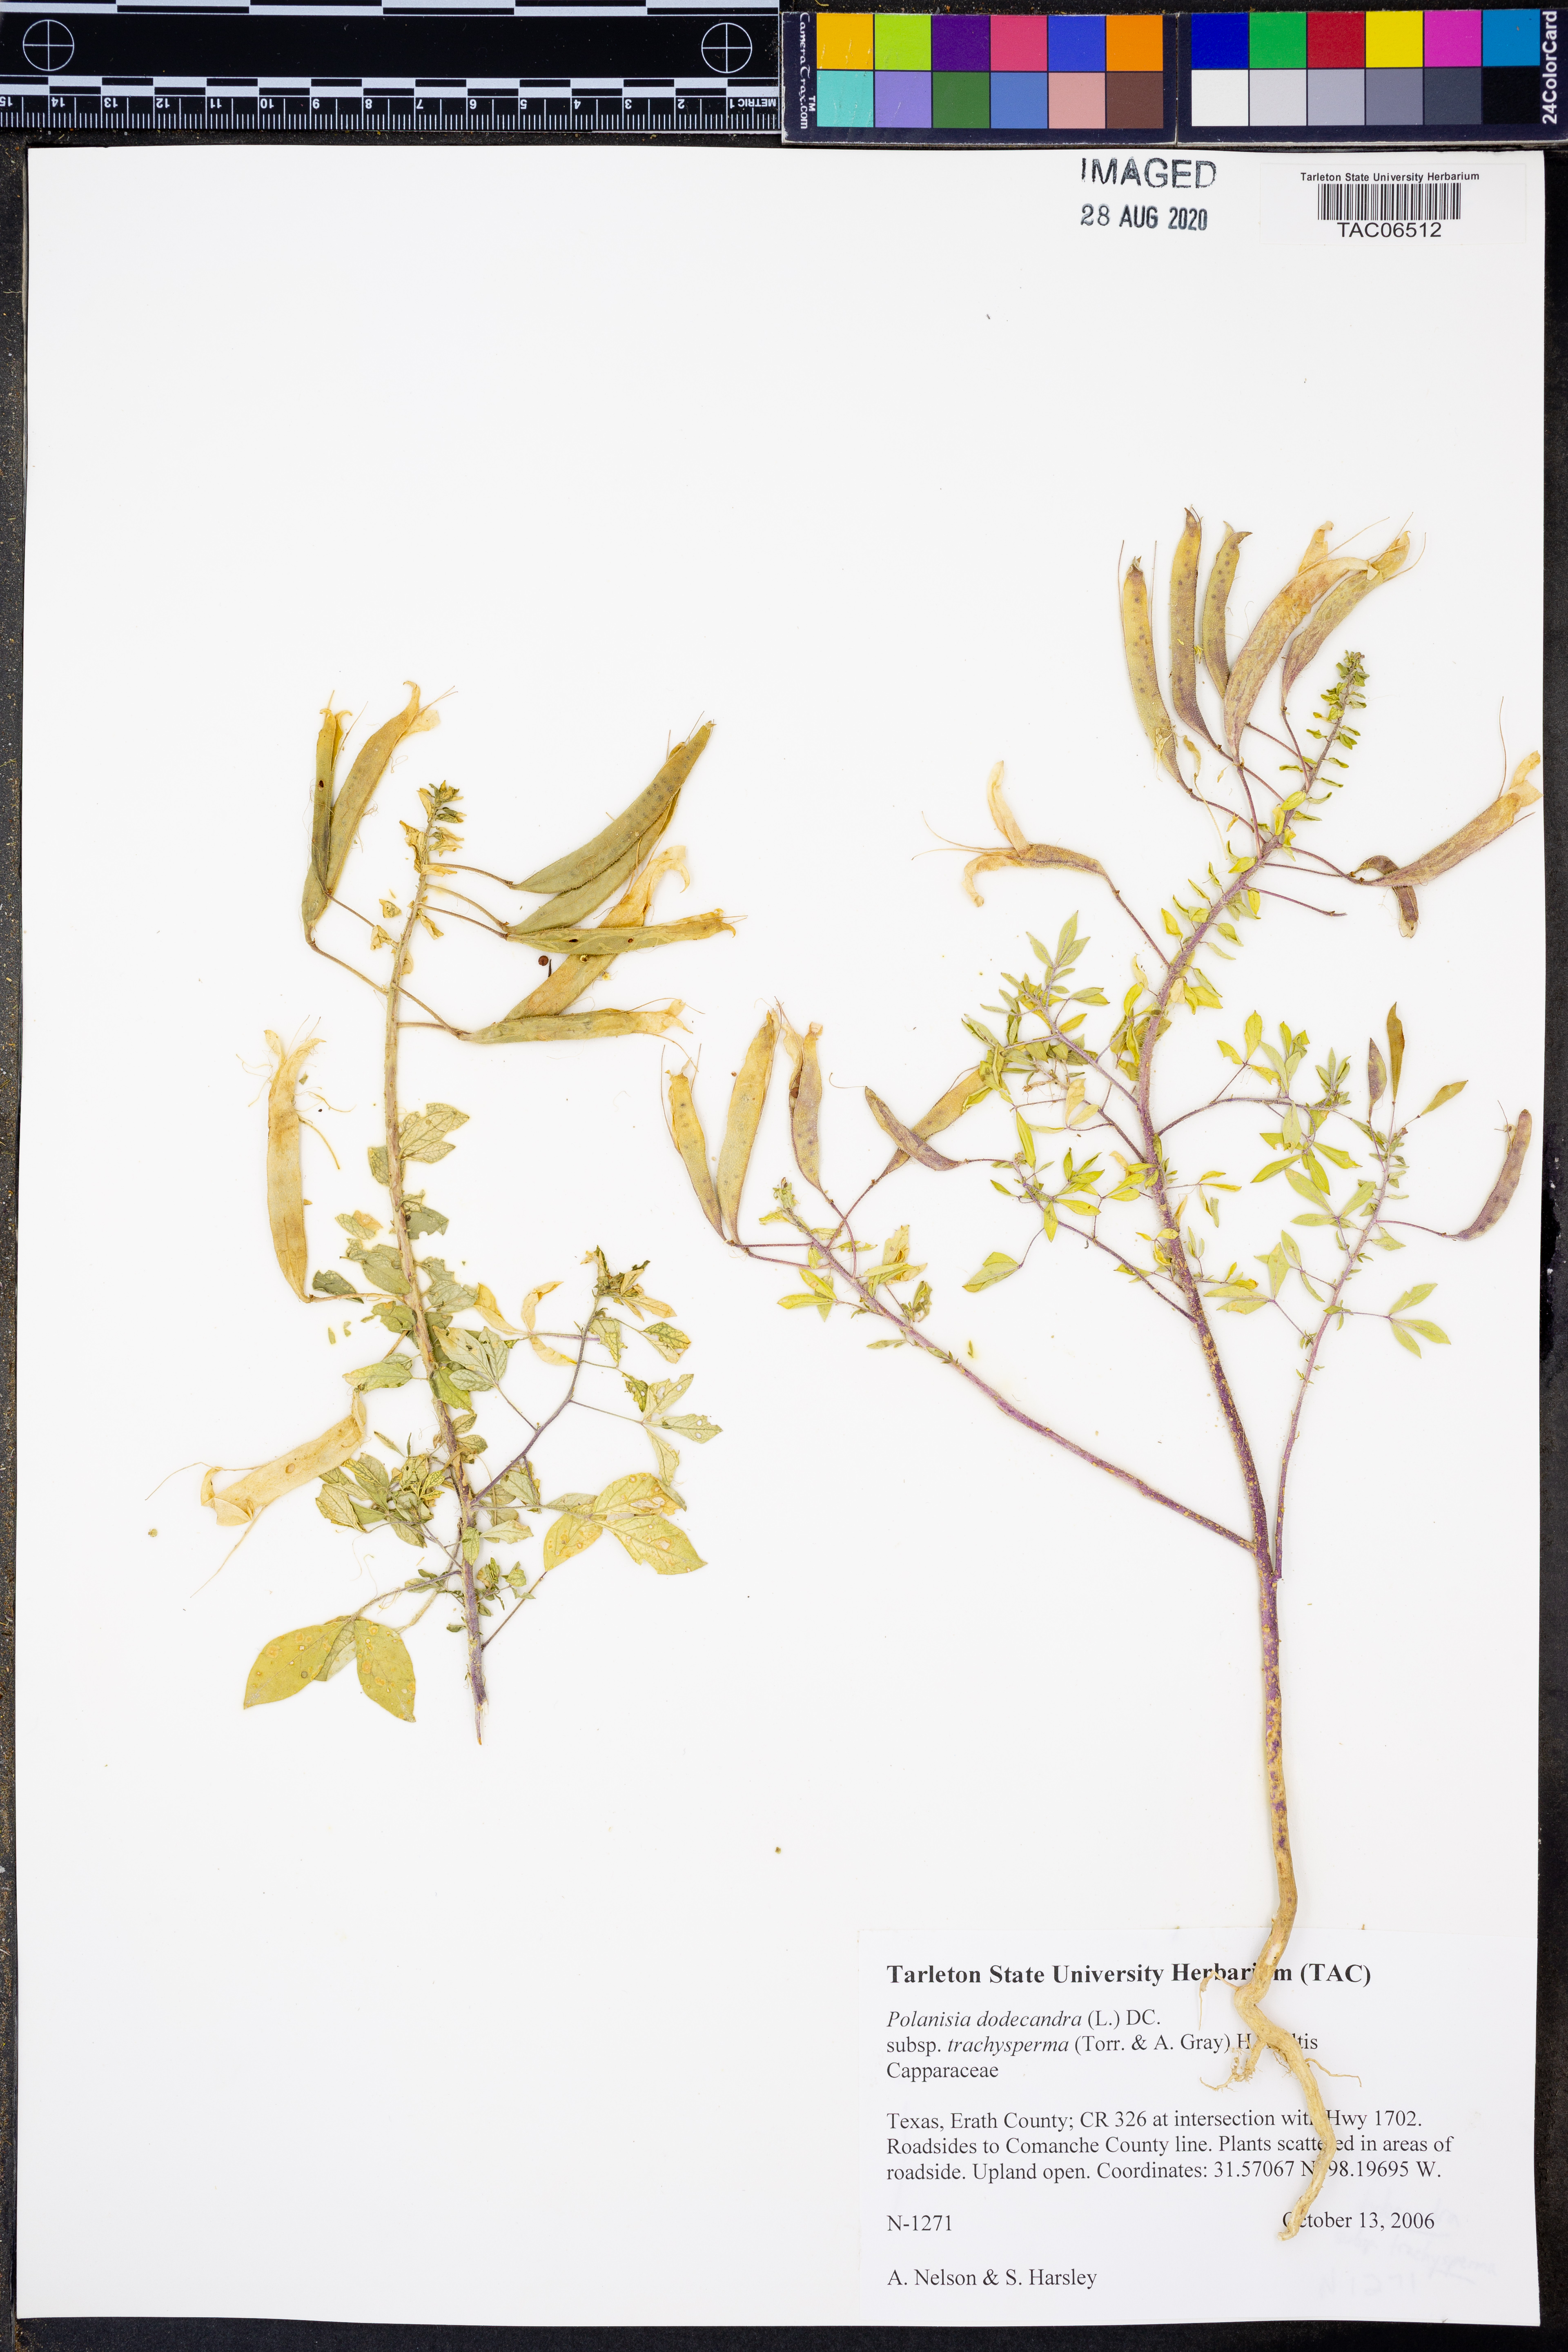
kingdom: Plantae
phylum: Tracheophyta
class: Magnoliopsida
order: Brassicales
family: Cleomaceae
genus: Polanisia
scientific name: Polanisia trachysperma
